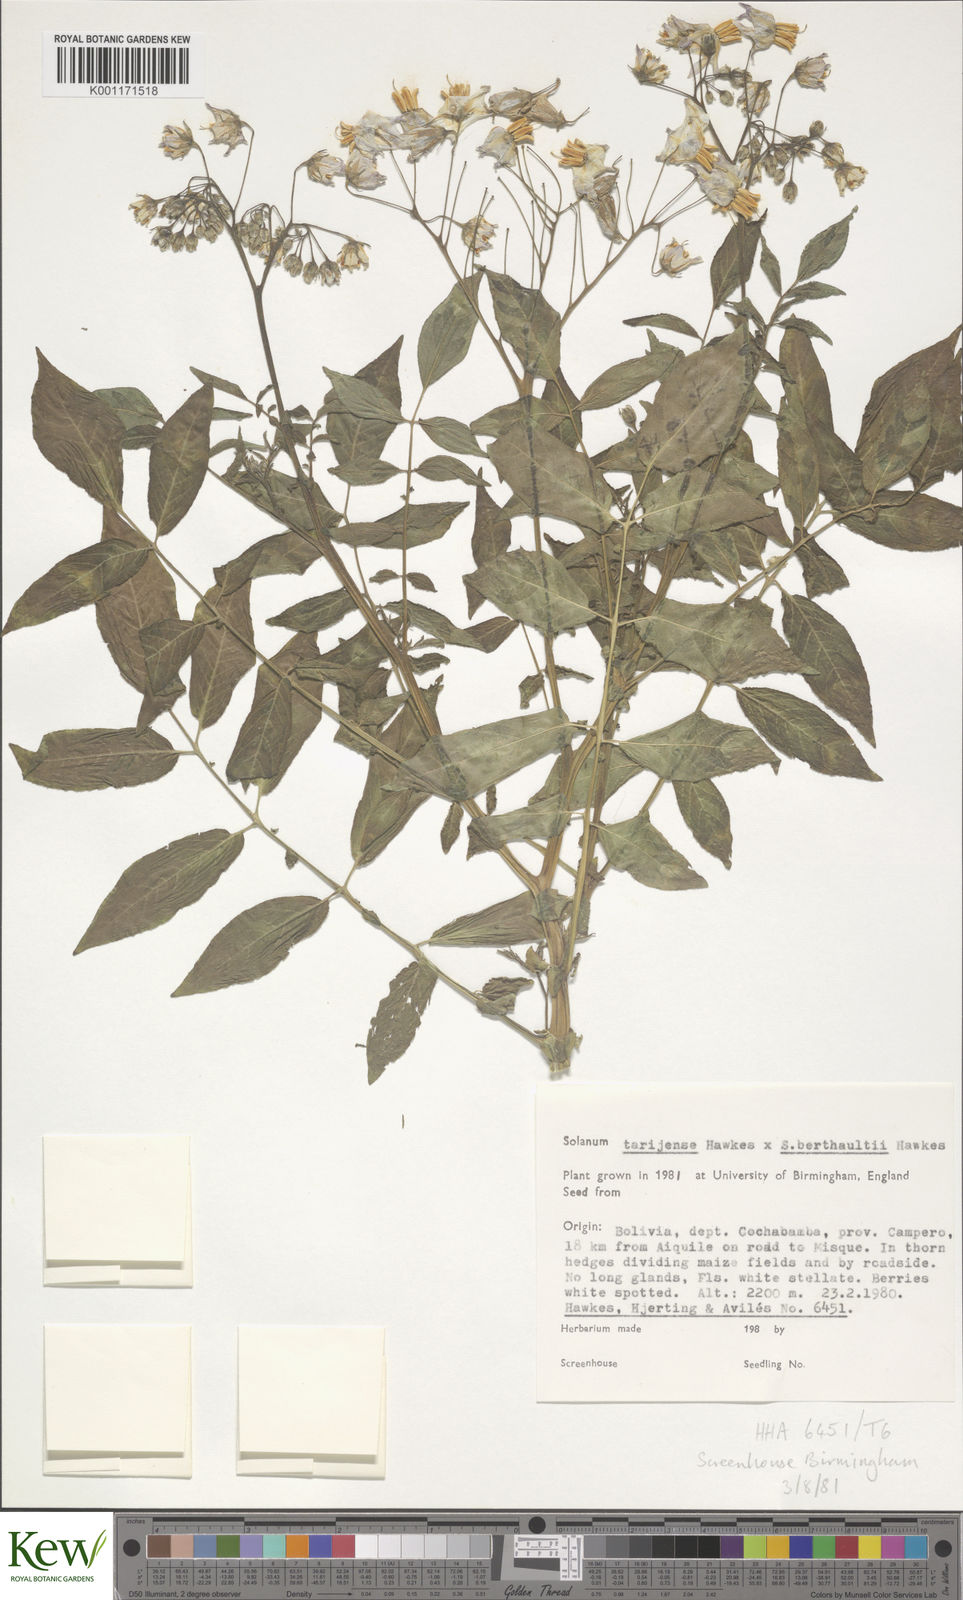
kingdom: Plantae
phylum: Tracheophyta
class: Magnoliopsida
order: Solanales
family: Solanaceae
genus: Solanum
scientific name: Solanum tarijense
